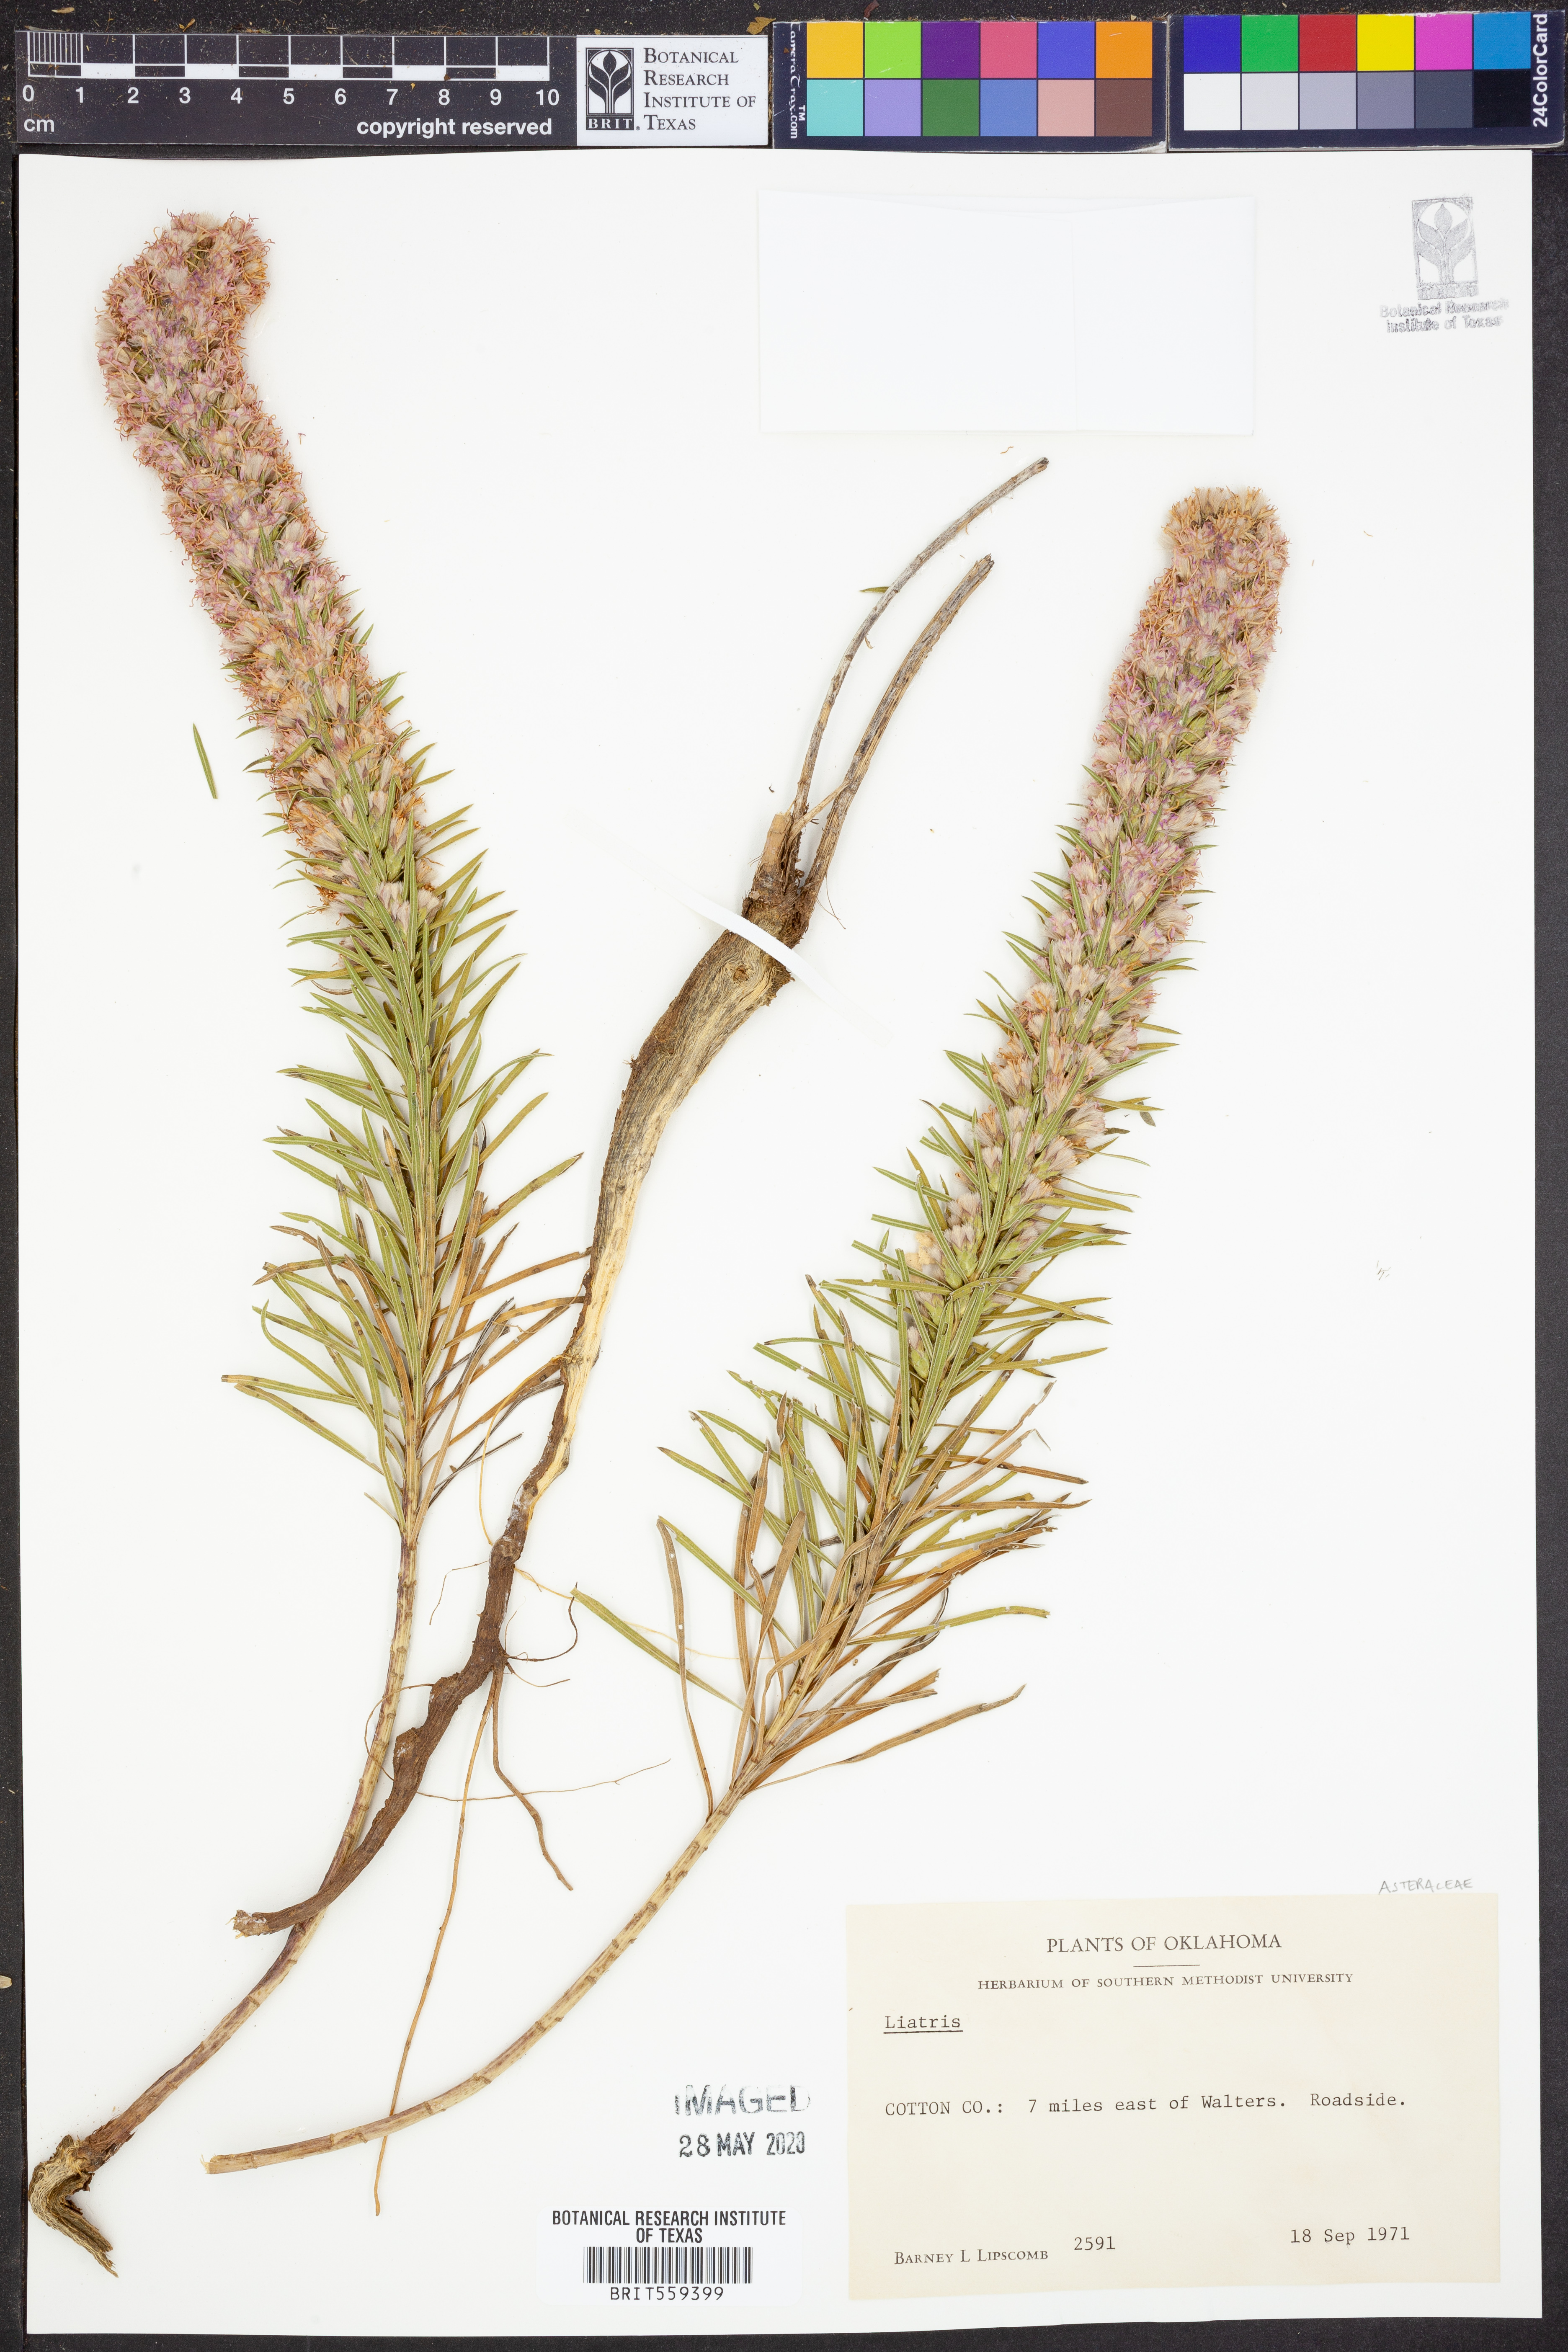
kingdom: Plantae
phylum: Tracheophyta
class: Magnoliopsida
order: Asterales
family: Asteraceae
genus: Liatris
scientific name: Liatris
